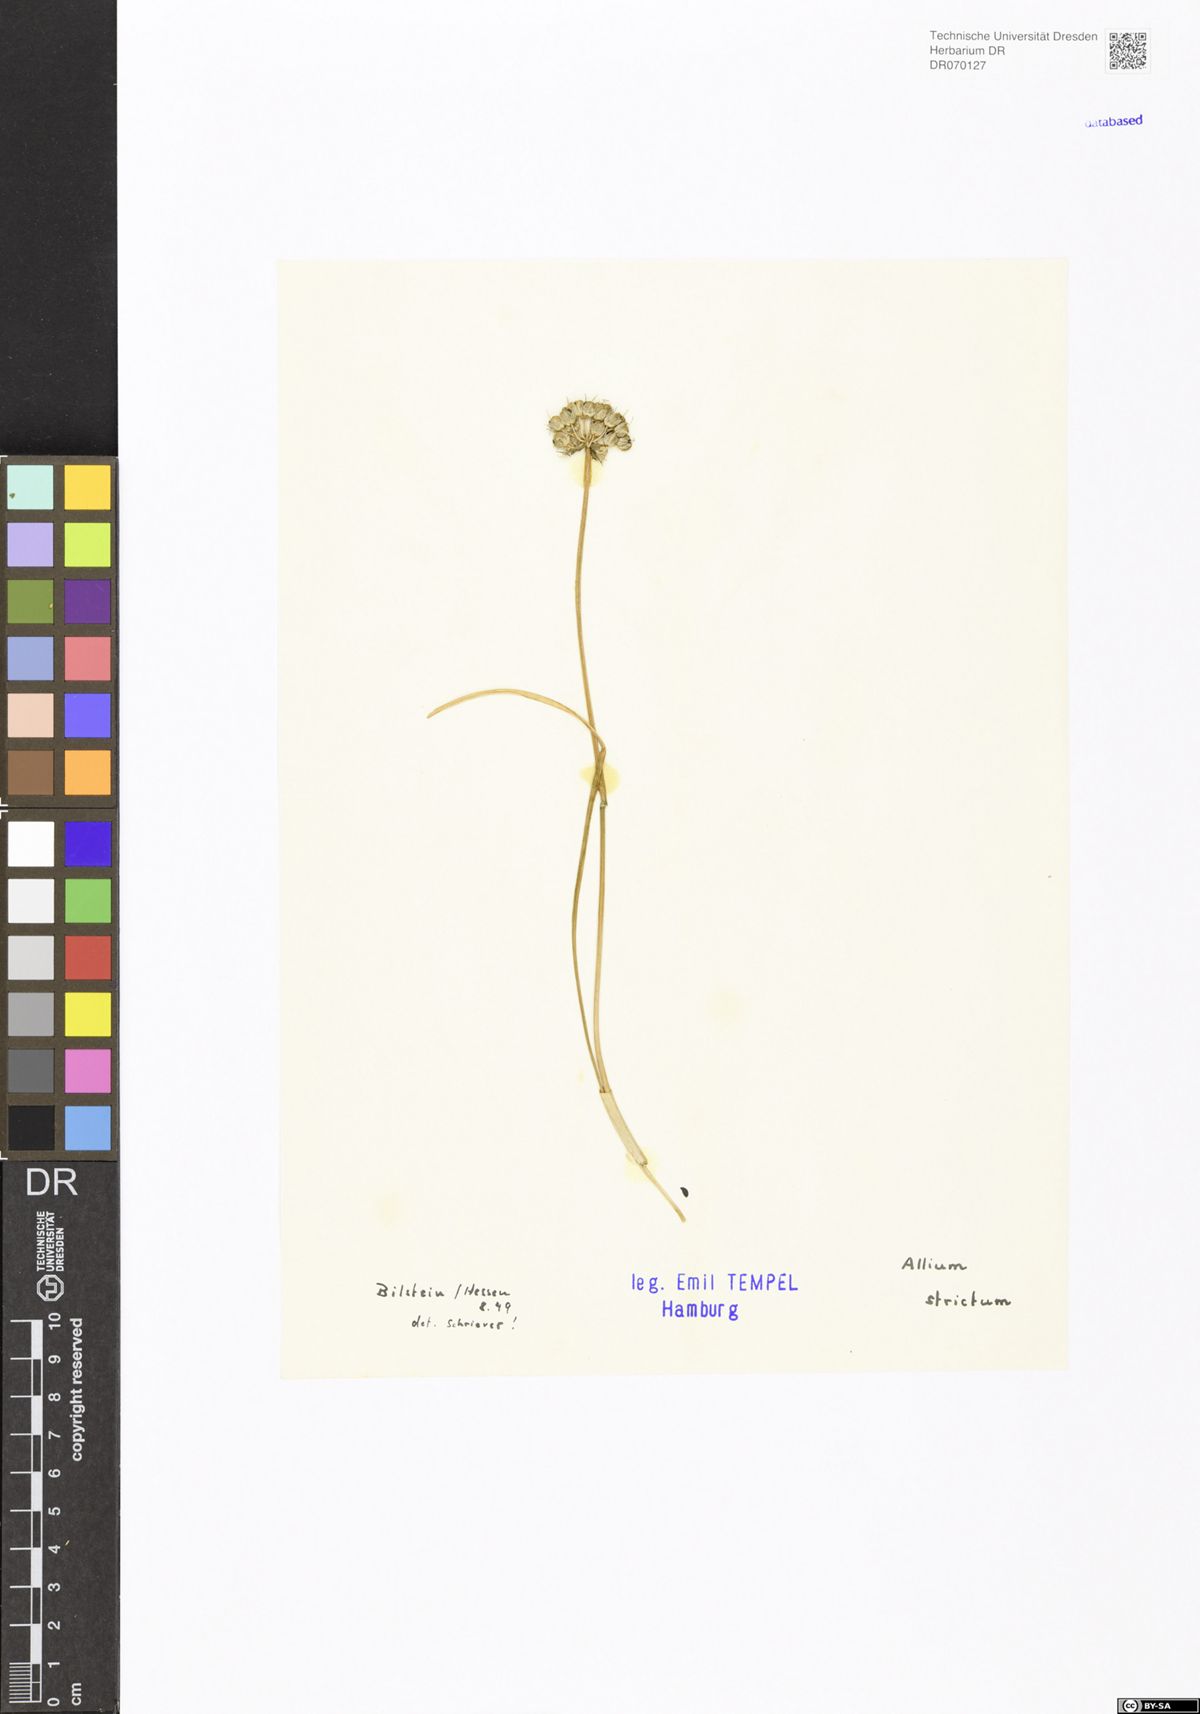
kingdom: Plantae
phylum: Tracheophyta
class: Liliopsida
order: Asparagales
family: Amaryllidaceae
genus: Allium
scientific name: Allium strictum
